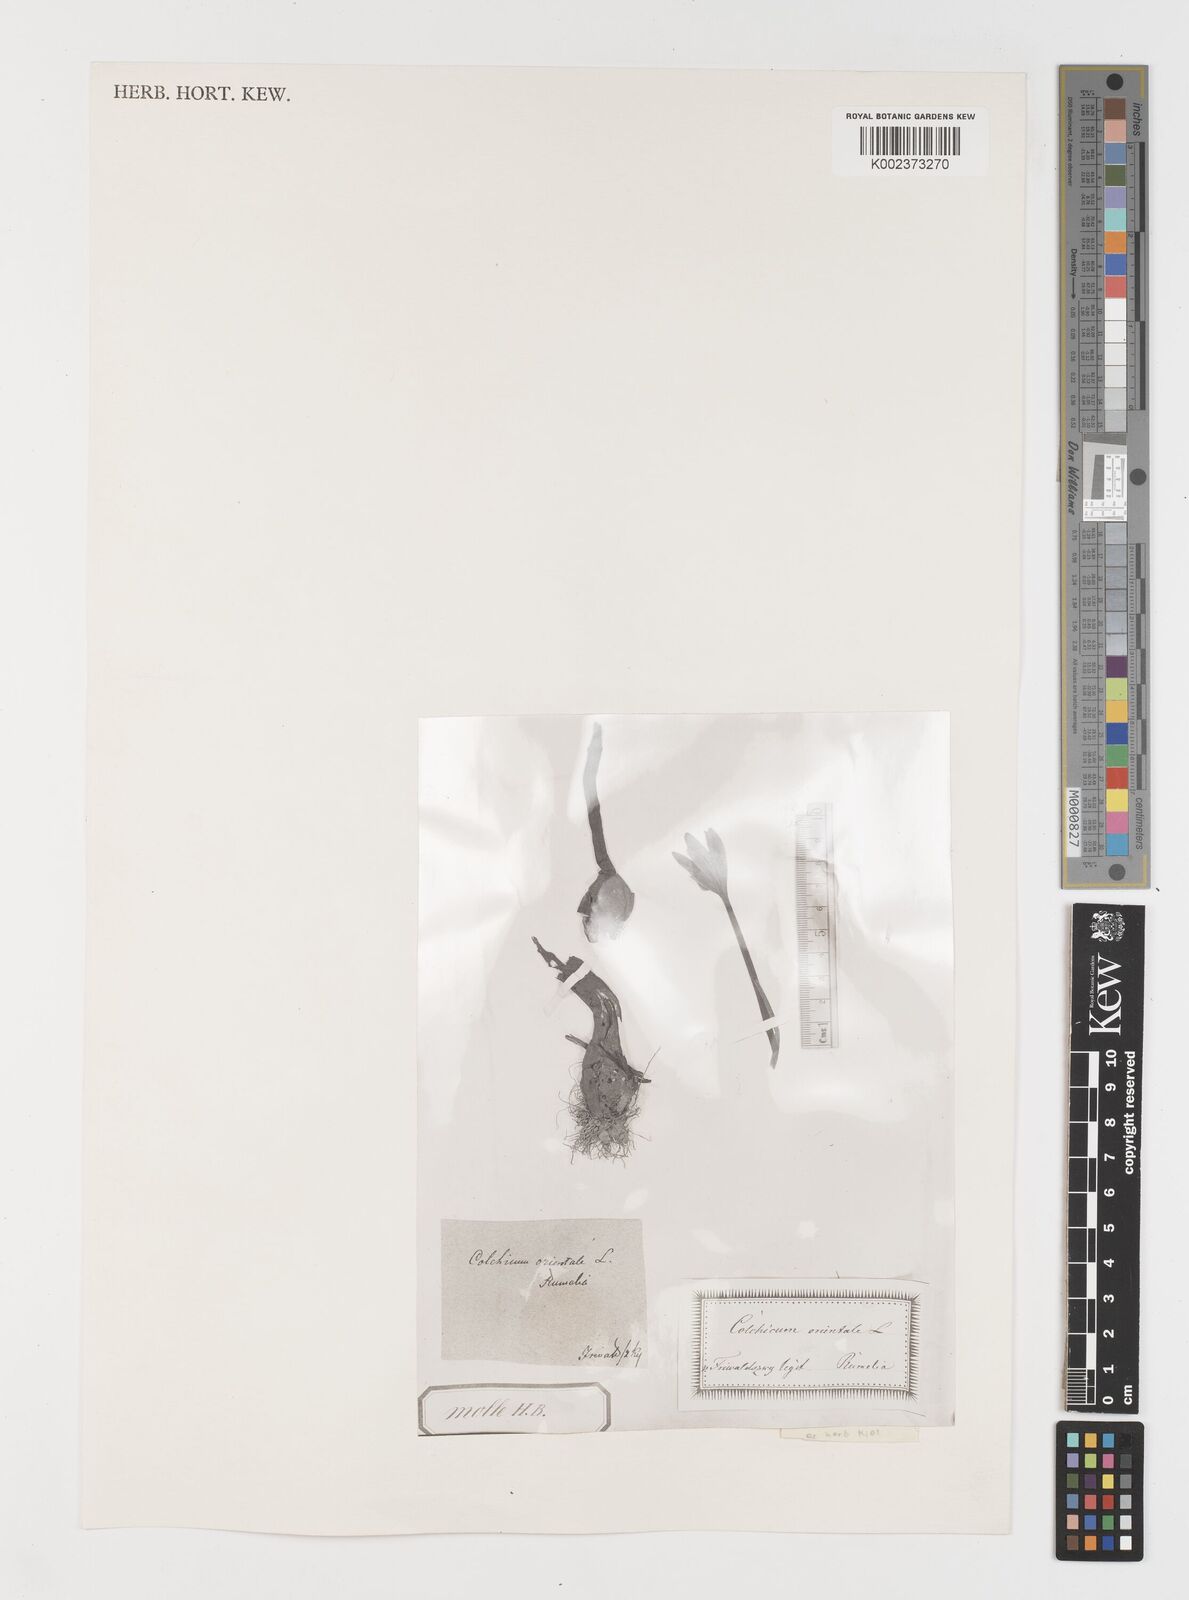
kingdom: Plantae
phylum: Tracheophyta
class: Liliopsida
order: Liliales
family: Colchicaceae
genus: Colchicum
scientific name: Colchicum turcicum
